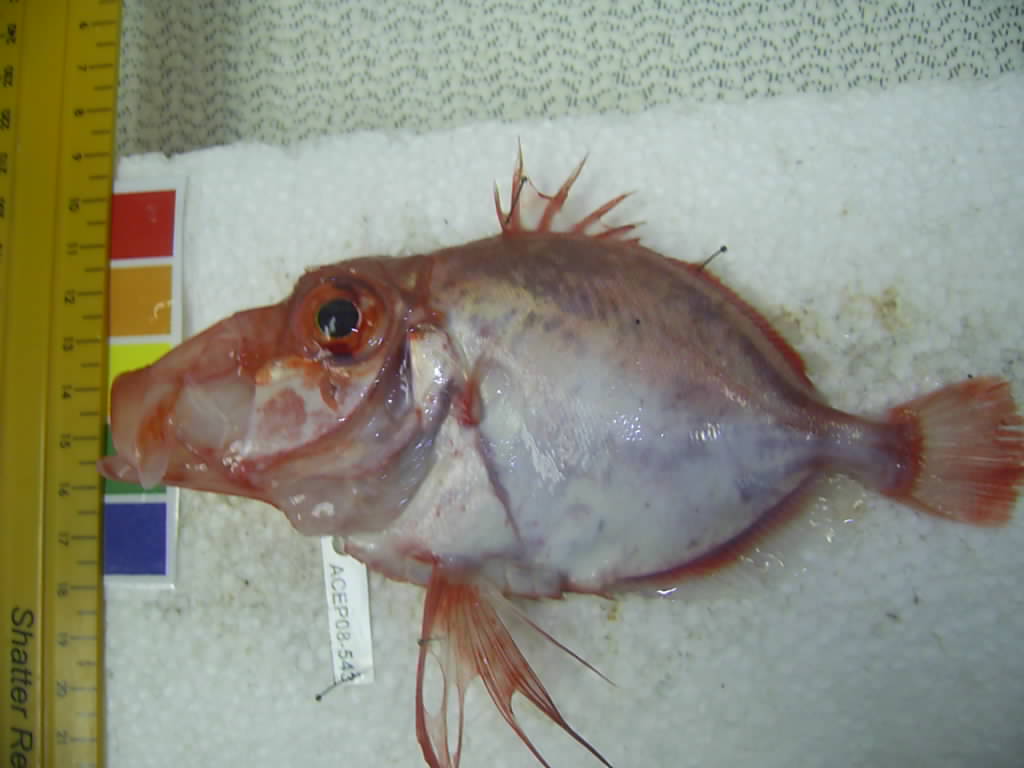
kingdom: Animalia
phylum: Chordata
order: Zeiformes
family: Zeidae
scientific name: Zeidae
